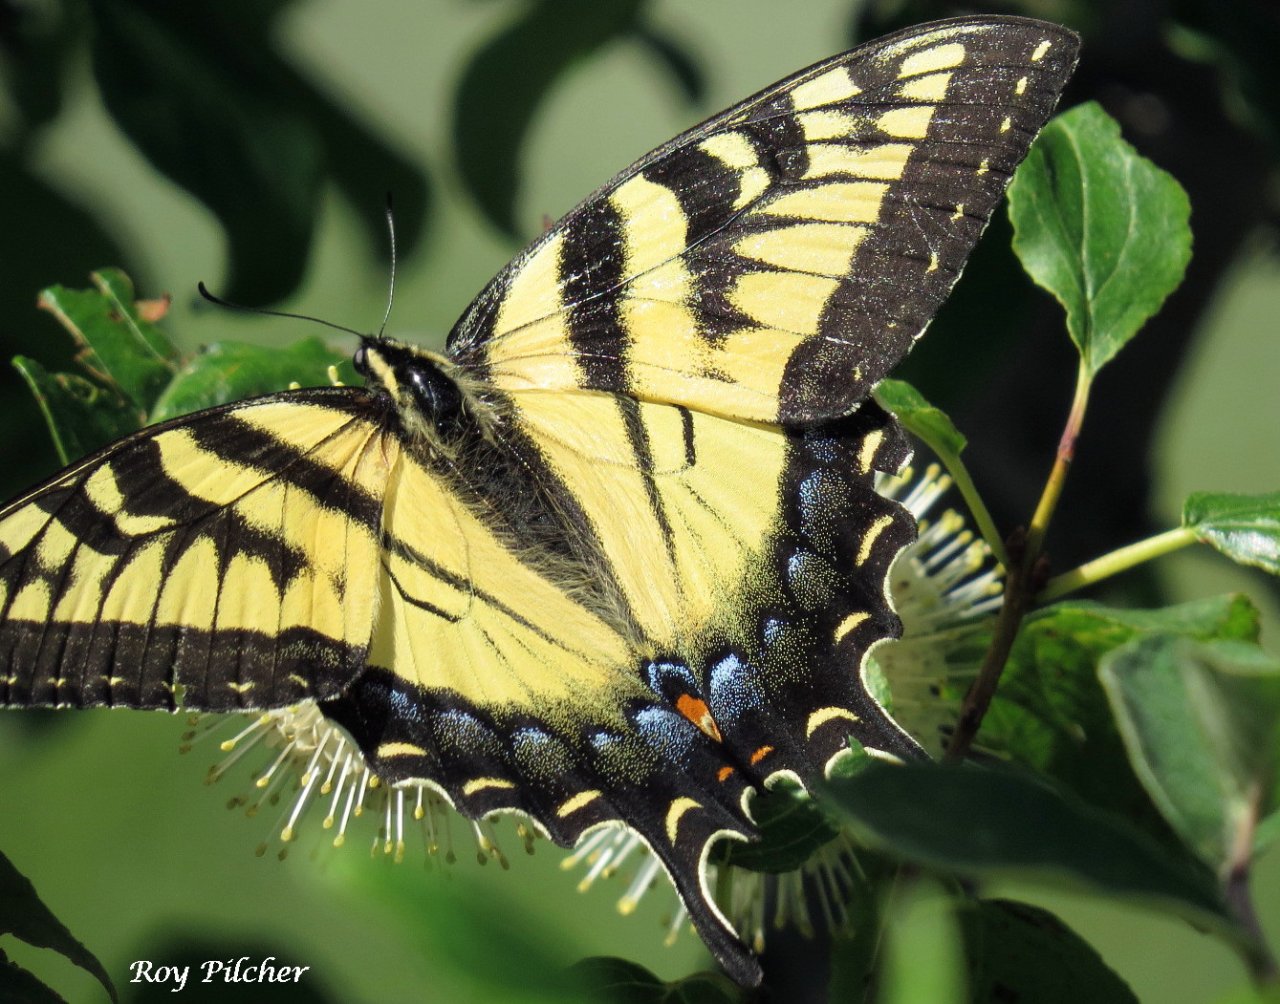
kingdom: Animalia
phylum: Arthropoda
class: Insecta
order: Lepidoptera
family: Papilionidae
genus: Pterourus
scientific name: Pterourus glaucus
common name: Eastern Tiger Swallowtail
